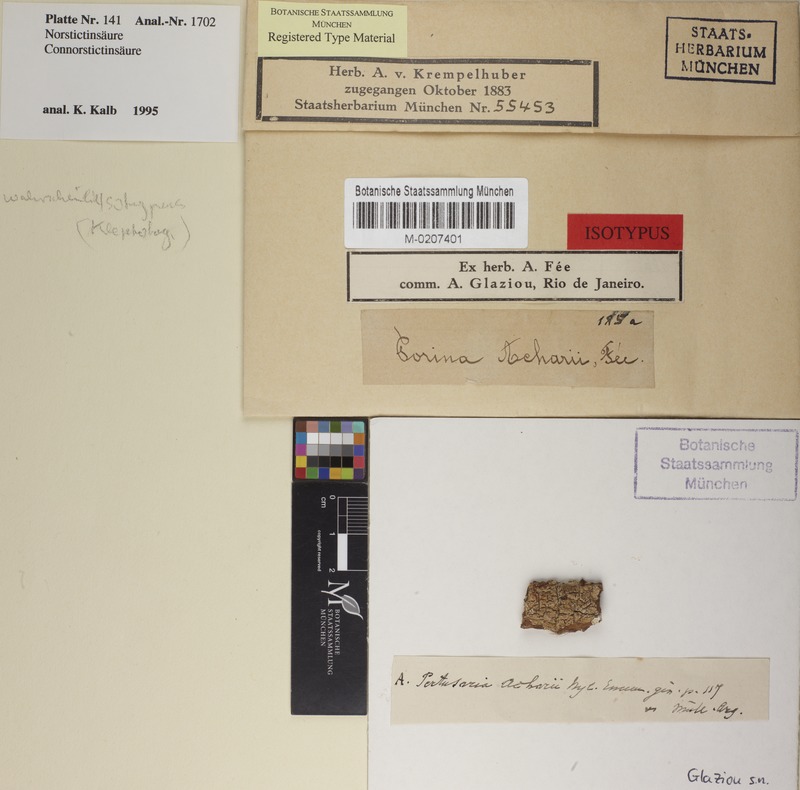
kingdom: Fungi
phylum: Ascomycota
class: Lecanoromycetes
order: Pertusariales
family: Pertusariaceae
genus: Pertusaria
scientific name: Pertusaria
